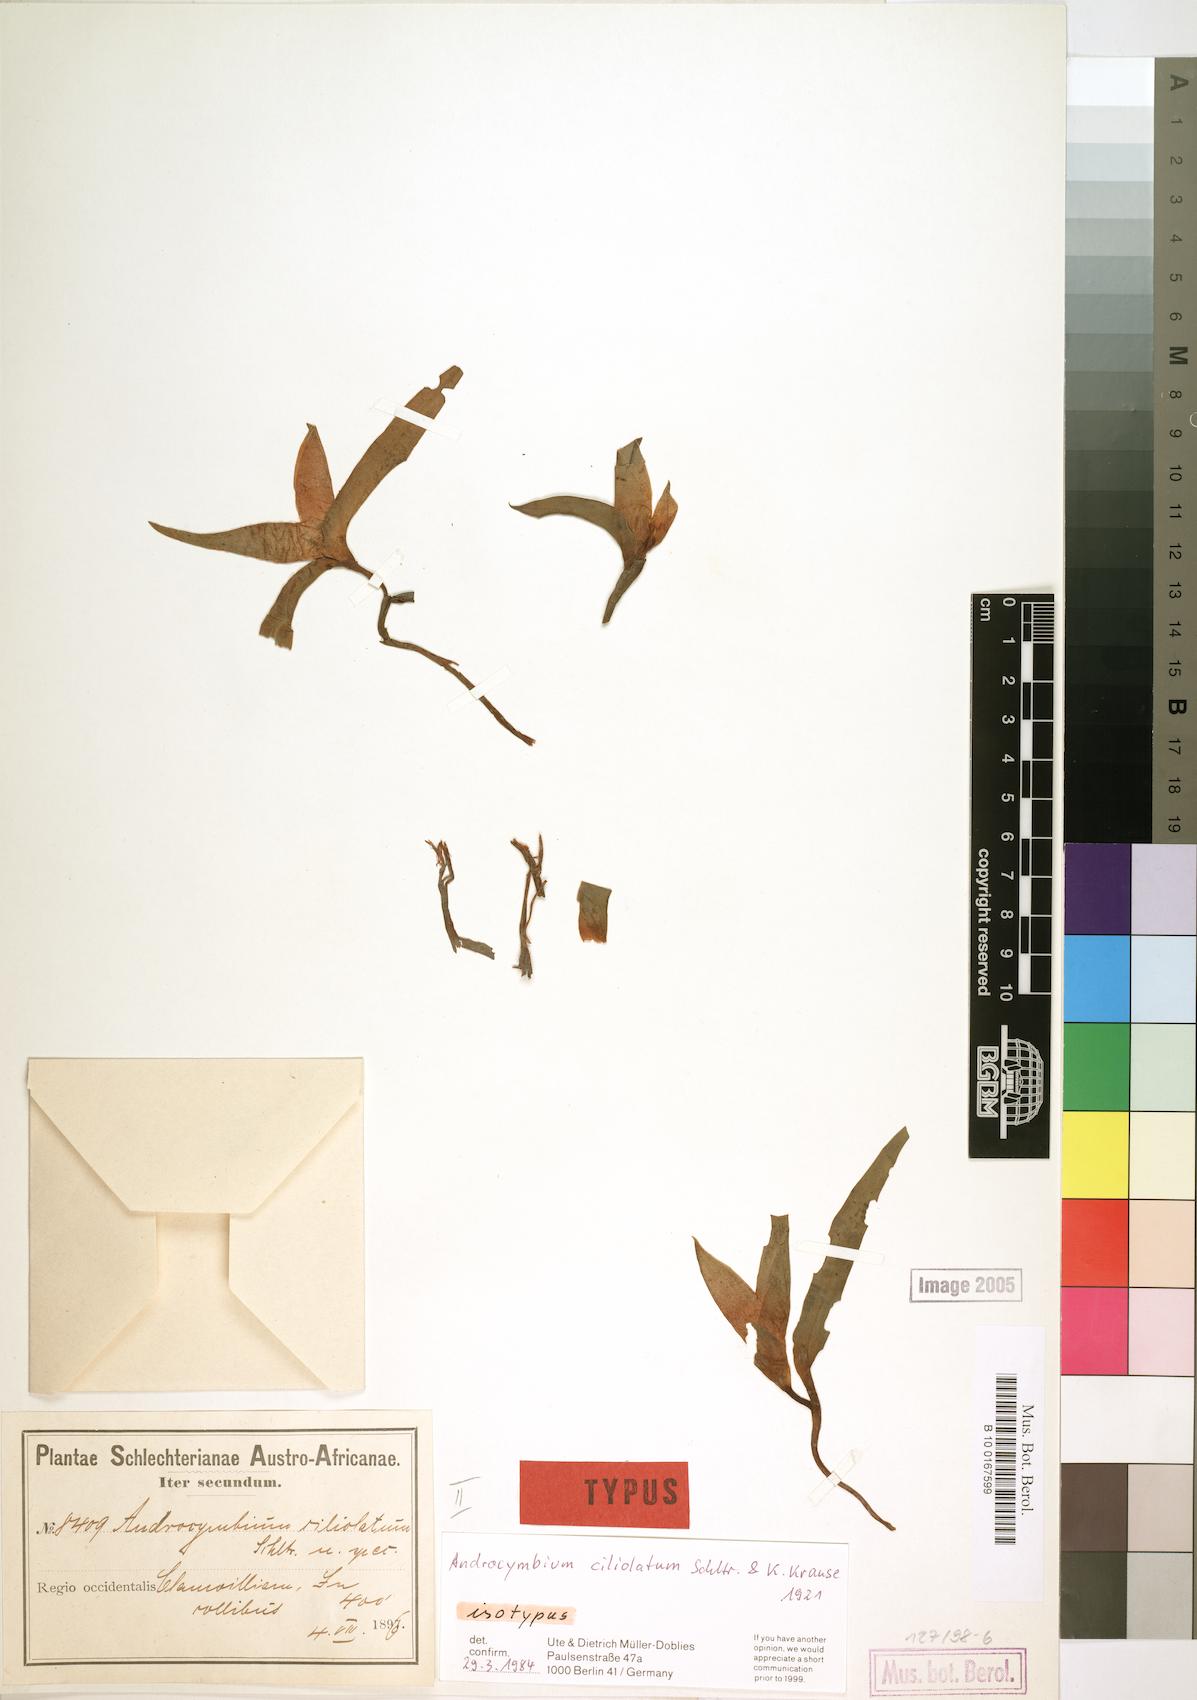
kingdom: Plantae
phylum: Tracheophyta
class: Liliopsida
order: Liliales
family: Colchicaceae
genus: Colchicum
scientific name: Colchicum capense
